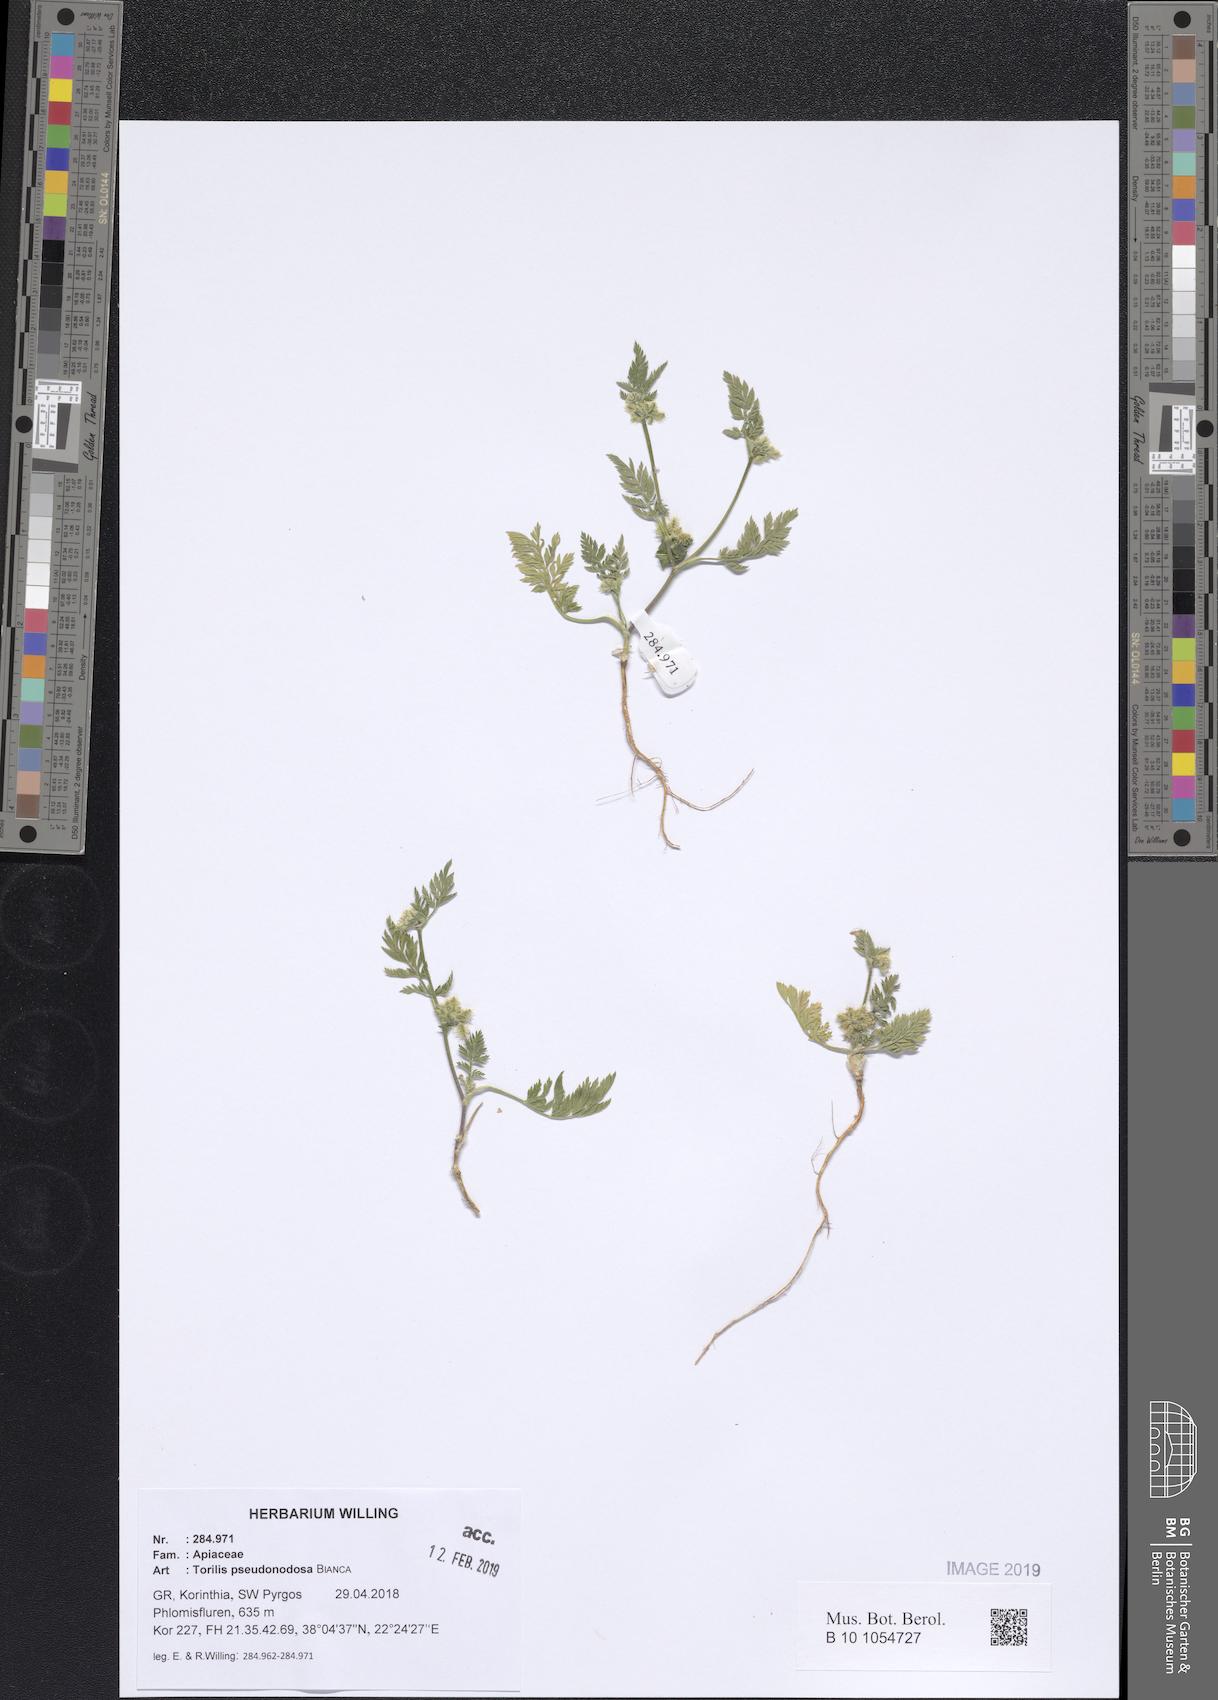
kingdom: Plantae
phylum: Tracheophyta
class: Magnoliopsida
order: Apiales
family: Apiaceae
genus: Torilis
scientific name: Torilis pseudonodosa
